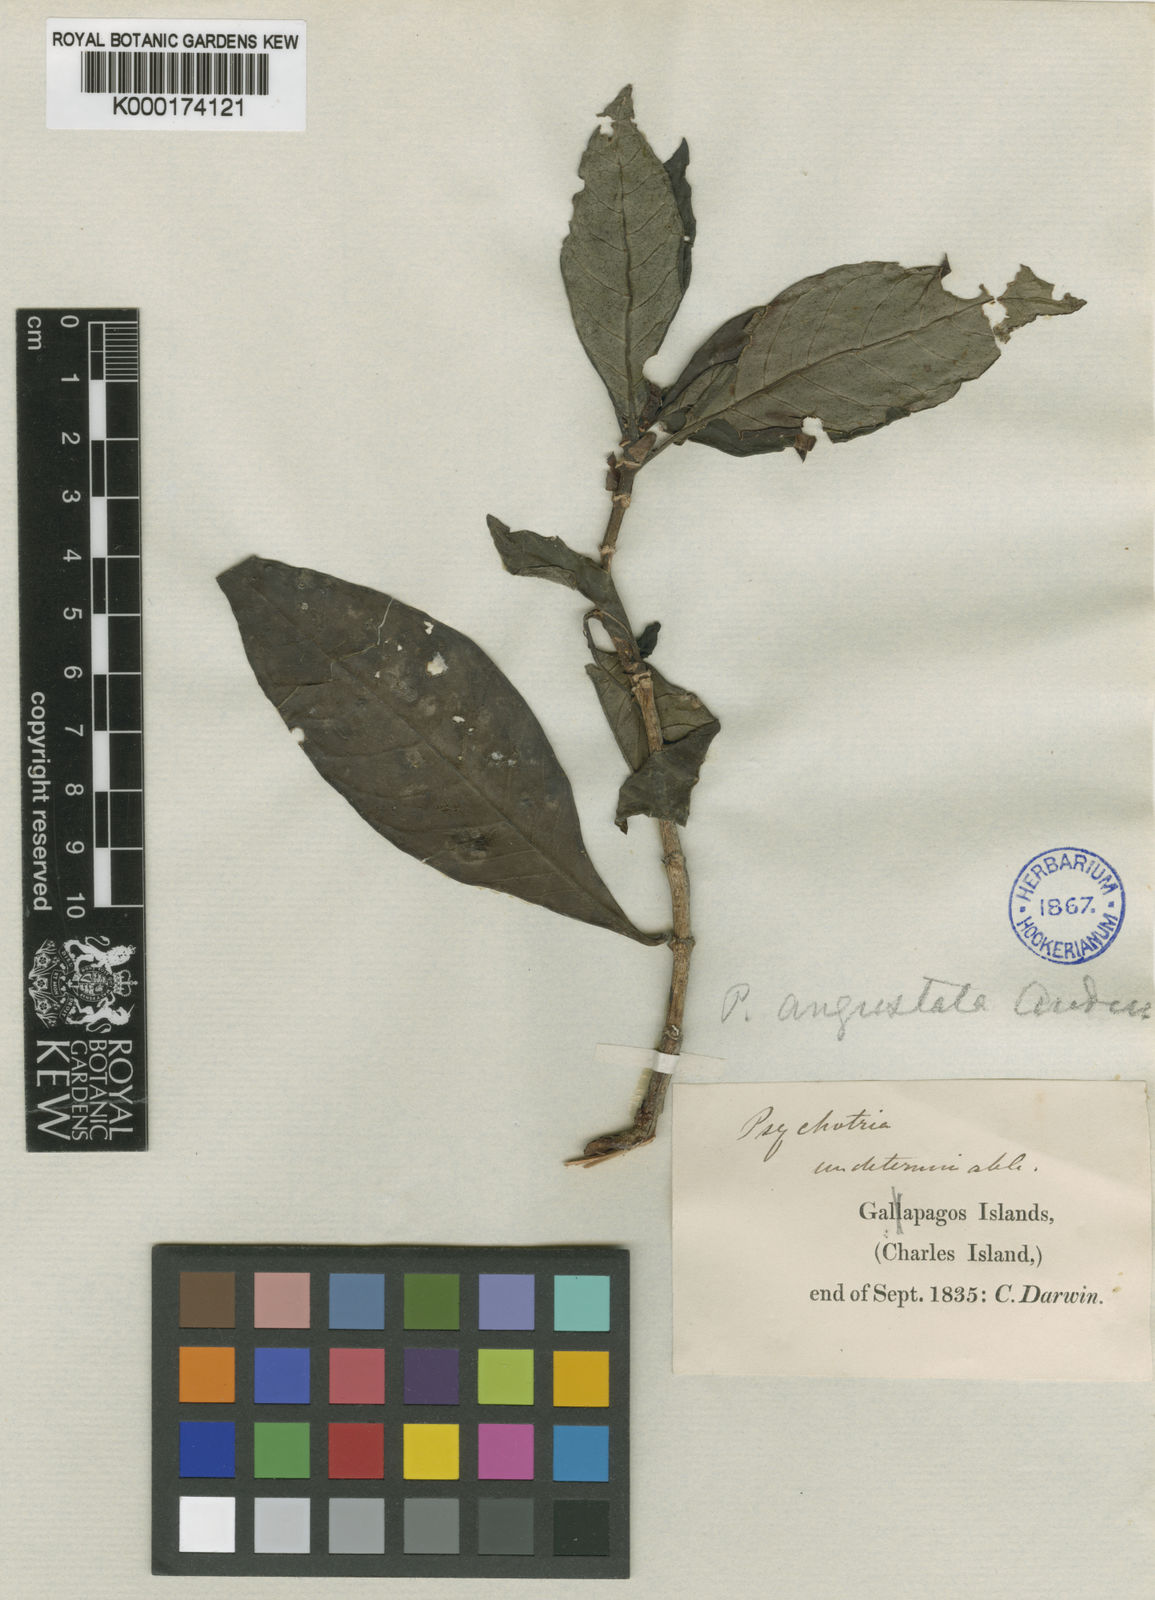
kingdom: Plantae
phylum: Tracheophyta
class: Magnoliopsida
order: Gentianales
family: Rubiaceae
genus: Psychotria
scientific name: Psychotria angustata
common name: Pink wild coffee
